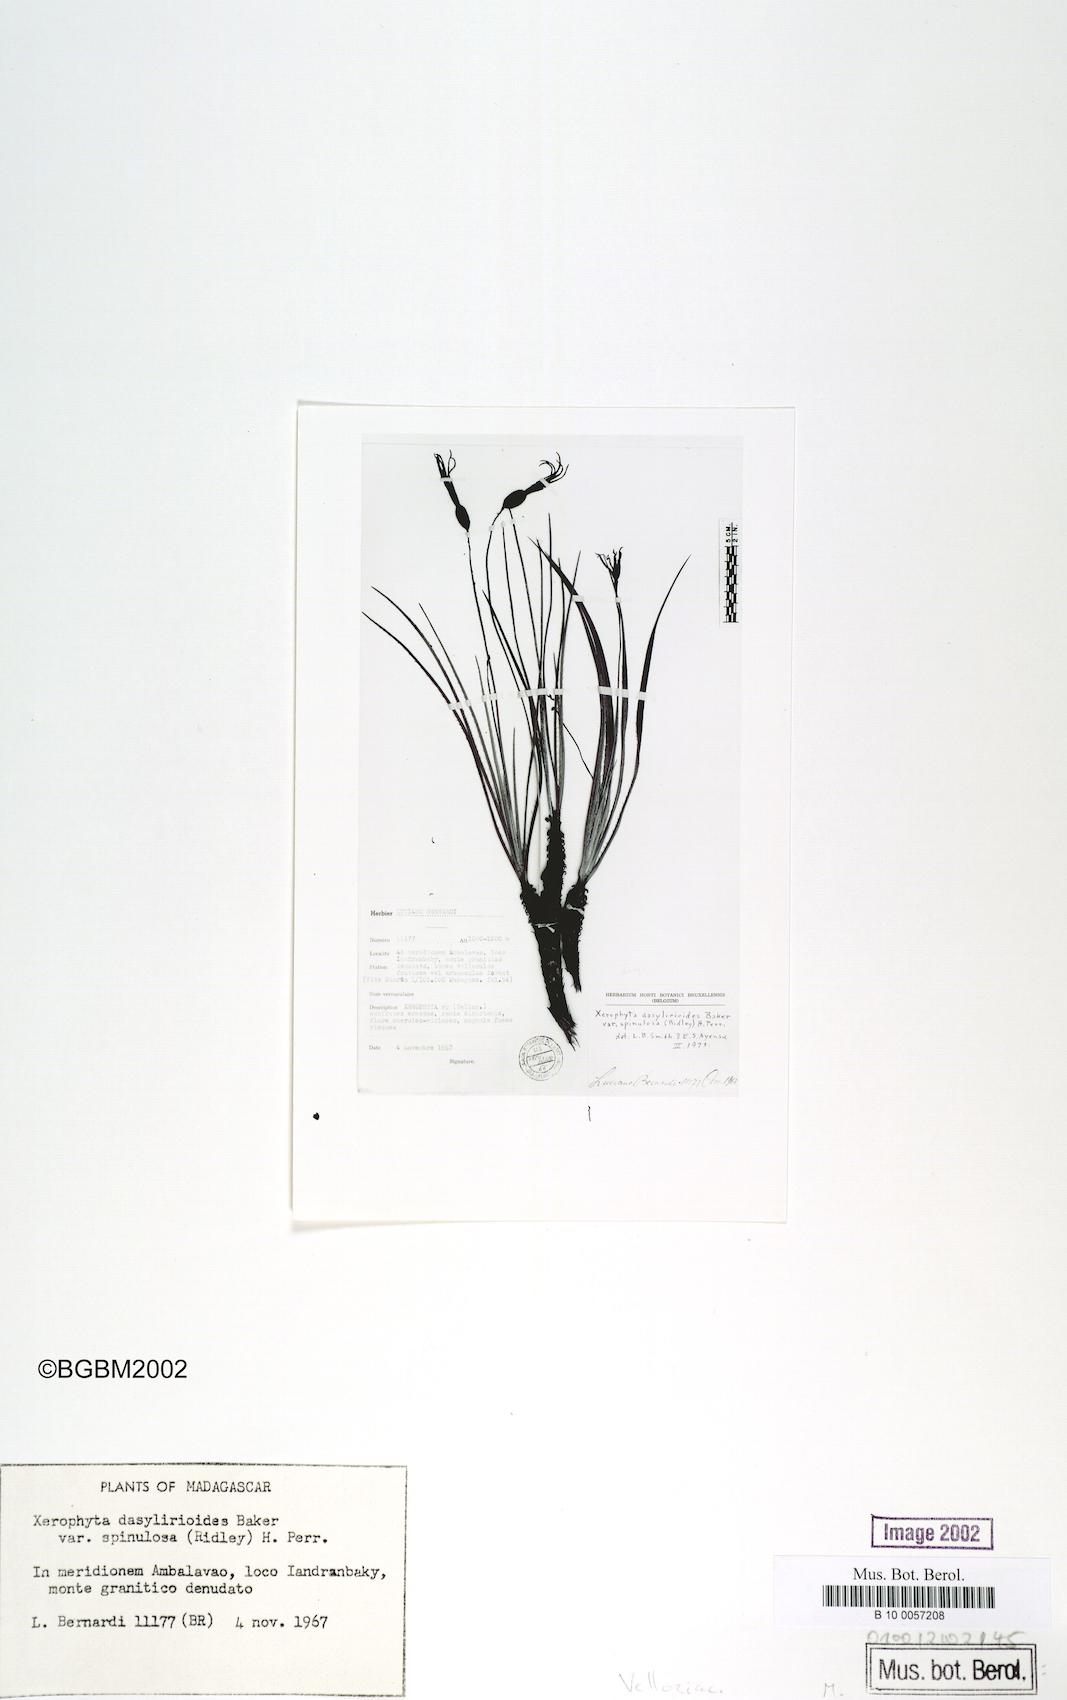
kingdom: Plantae
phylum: Tracheophyta
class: Liliopsida
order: Pandanales
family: Velloziaceae
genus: Xerophyta
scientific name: Xerophyta pectinata
